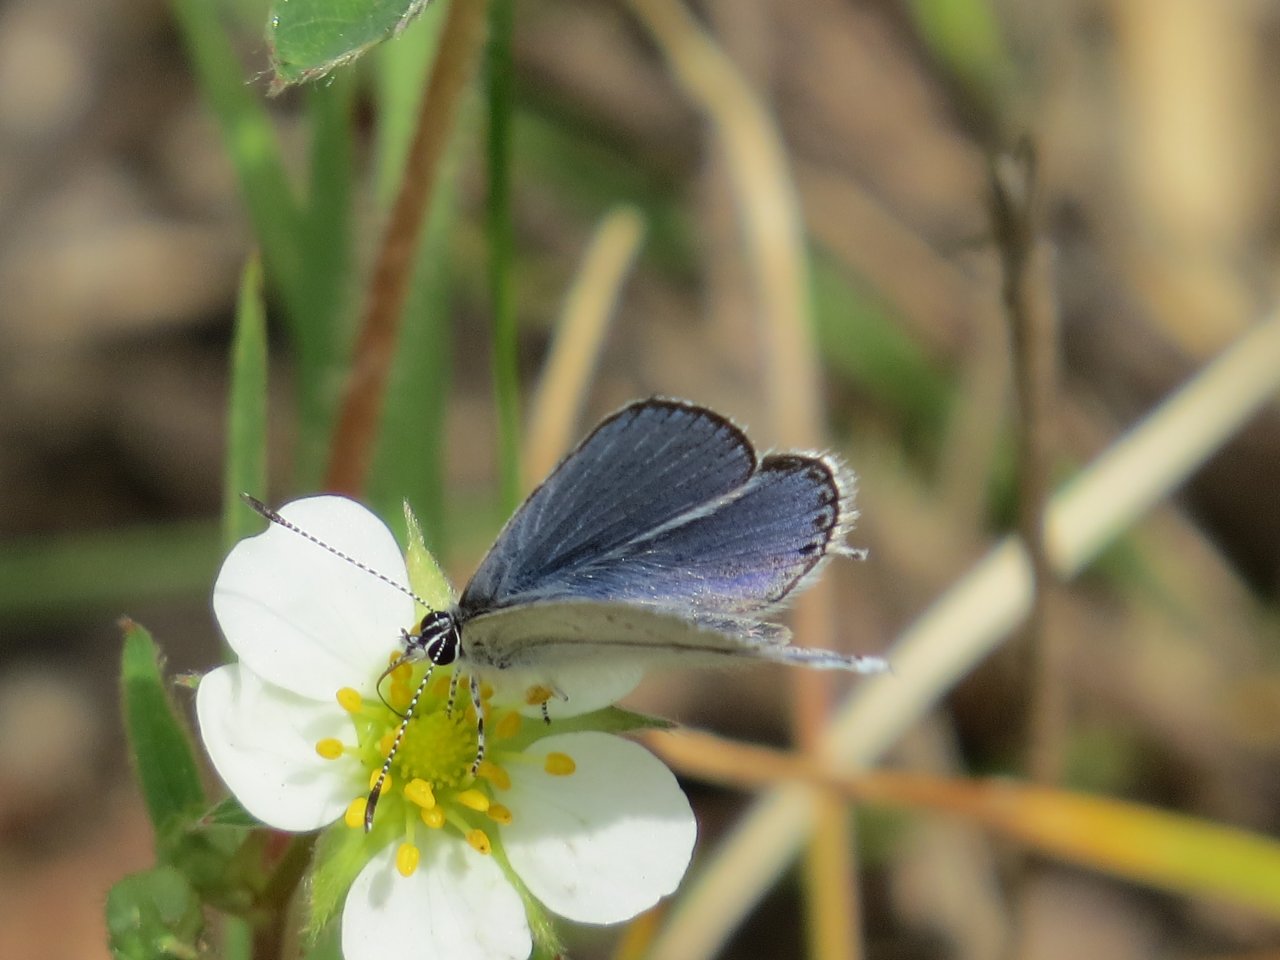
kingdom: Animalia
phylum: Arthropoda
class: Insecta
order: Lepidoptera
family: Lycaenidae
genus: Elkalyce
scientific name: Elkalyce amyntula
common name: Western Tailed-Blue
